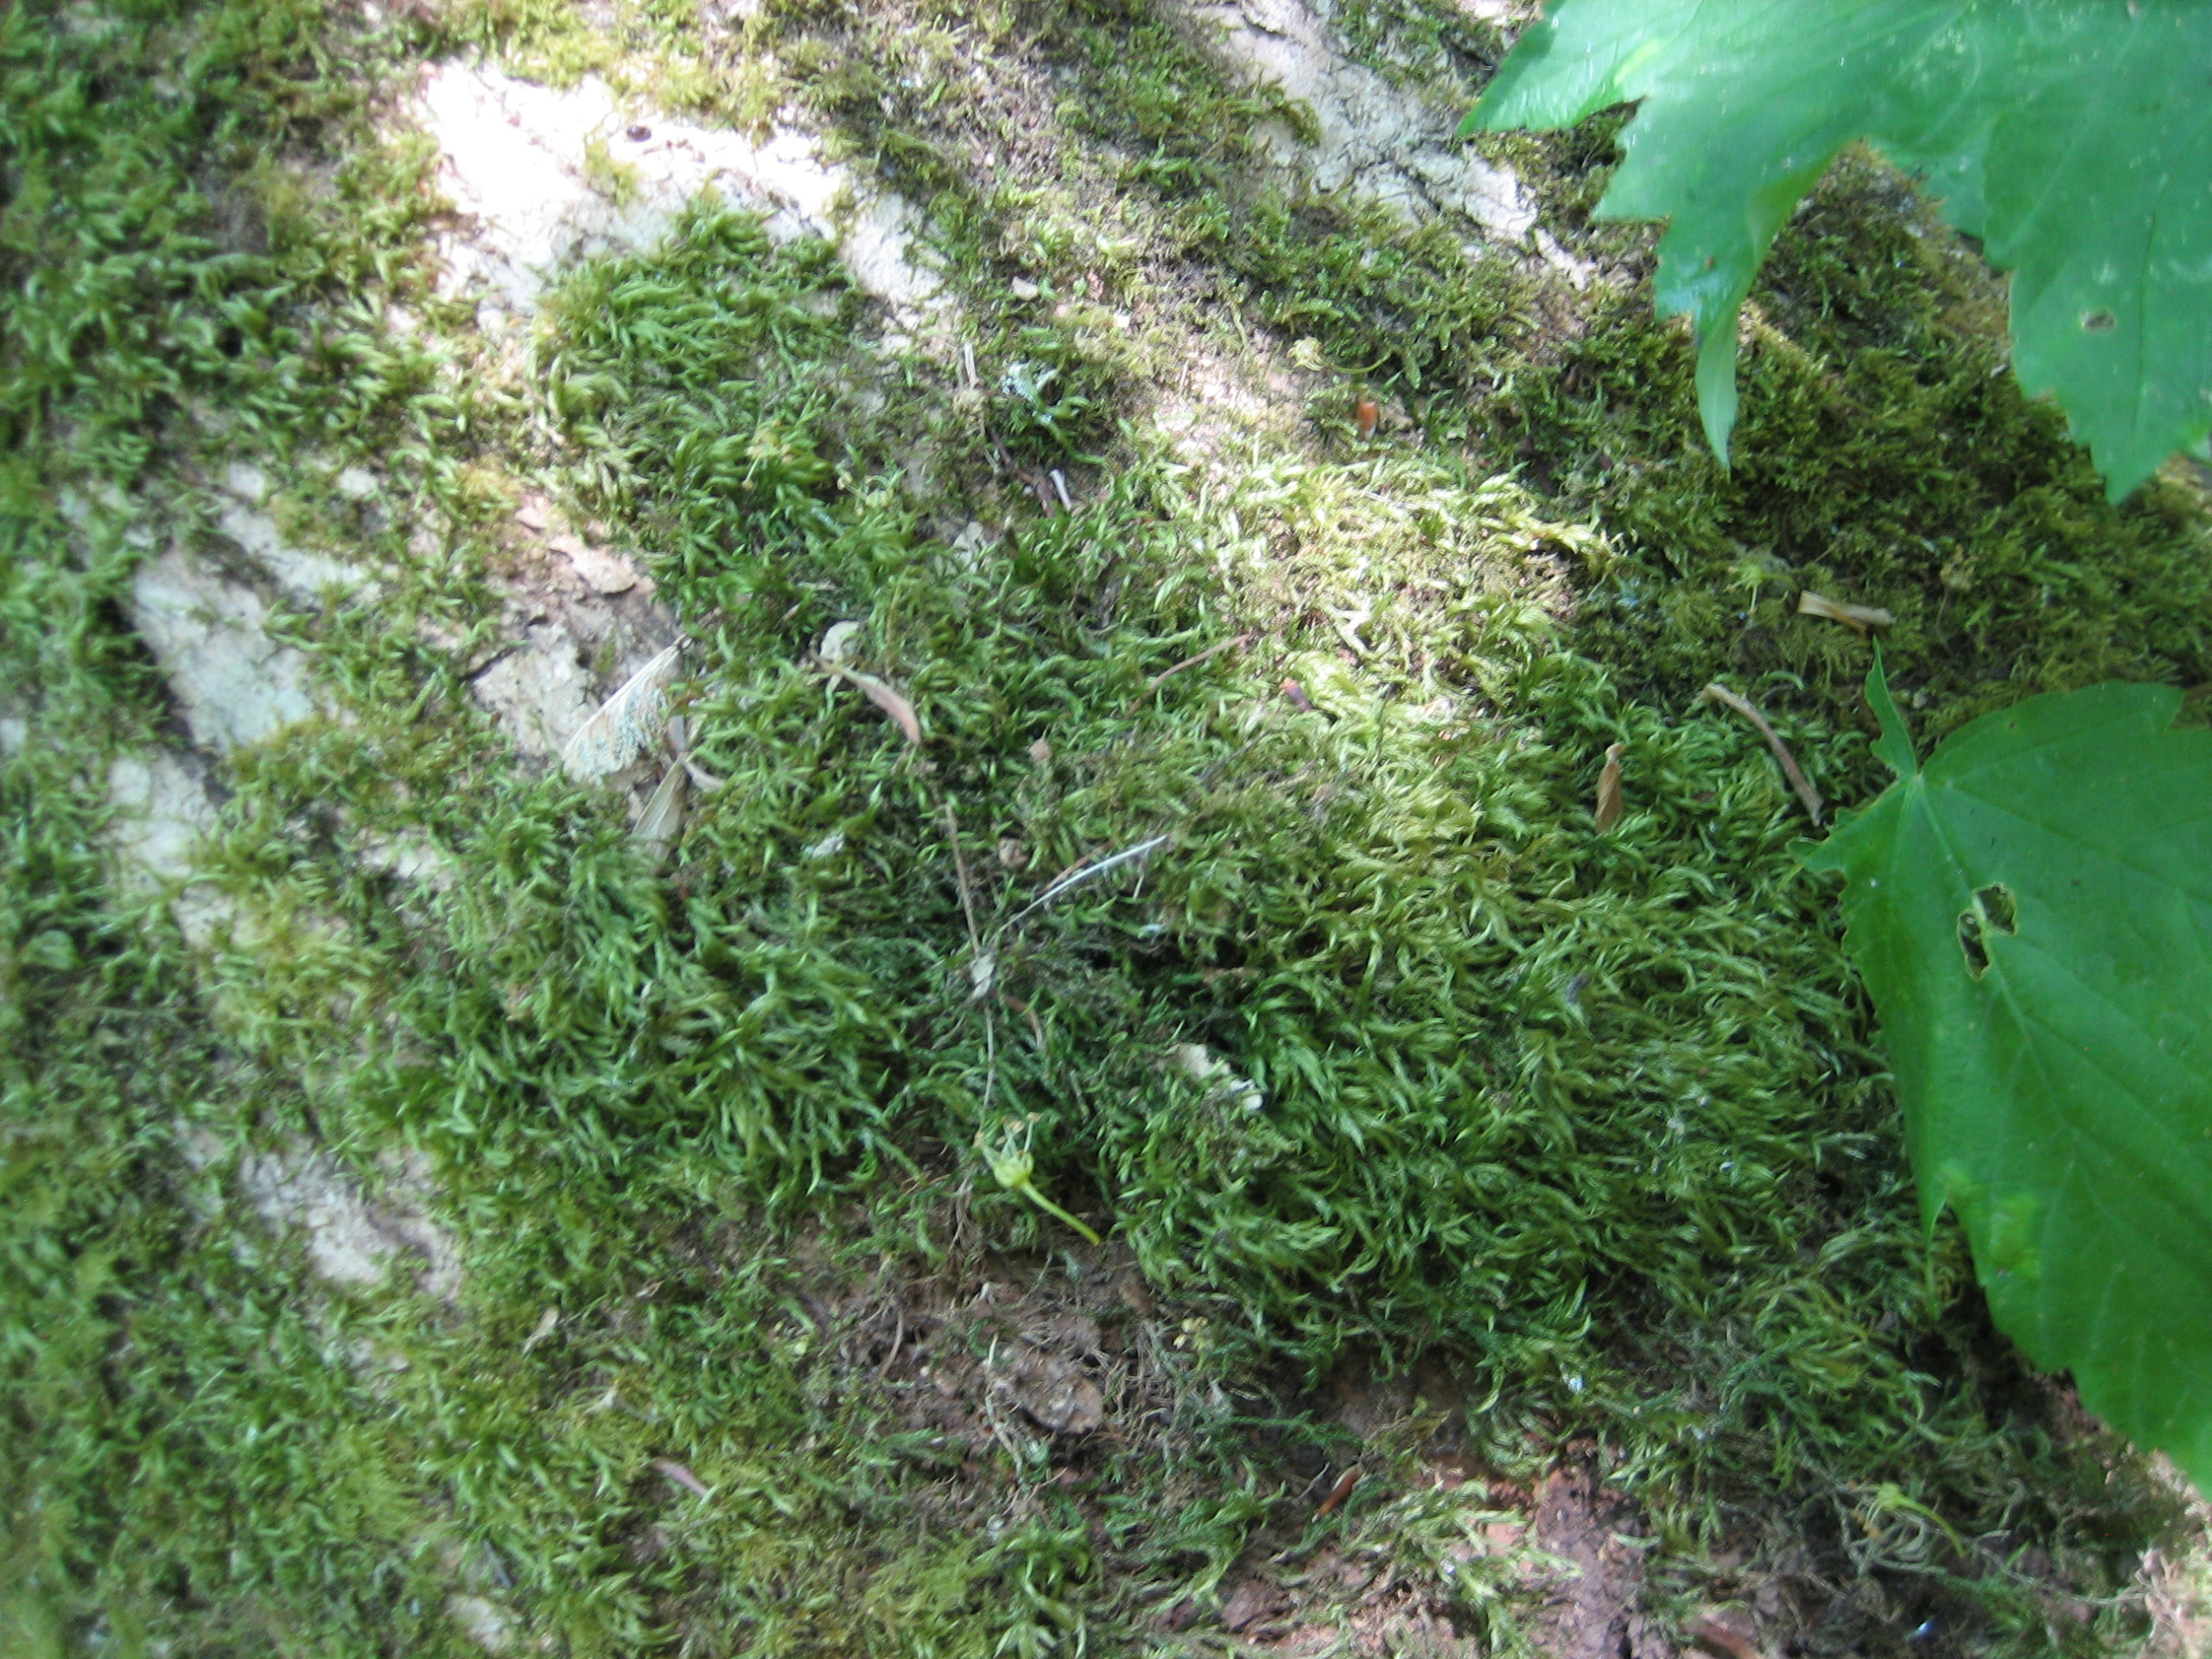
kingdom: Plantae
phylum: Bryophyta
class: Bryopsida
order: Hypnales
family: Lembophyllaceae
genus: Isothecium
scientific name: Isothecium alopecuroides
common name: Stor stammemos
